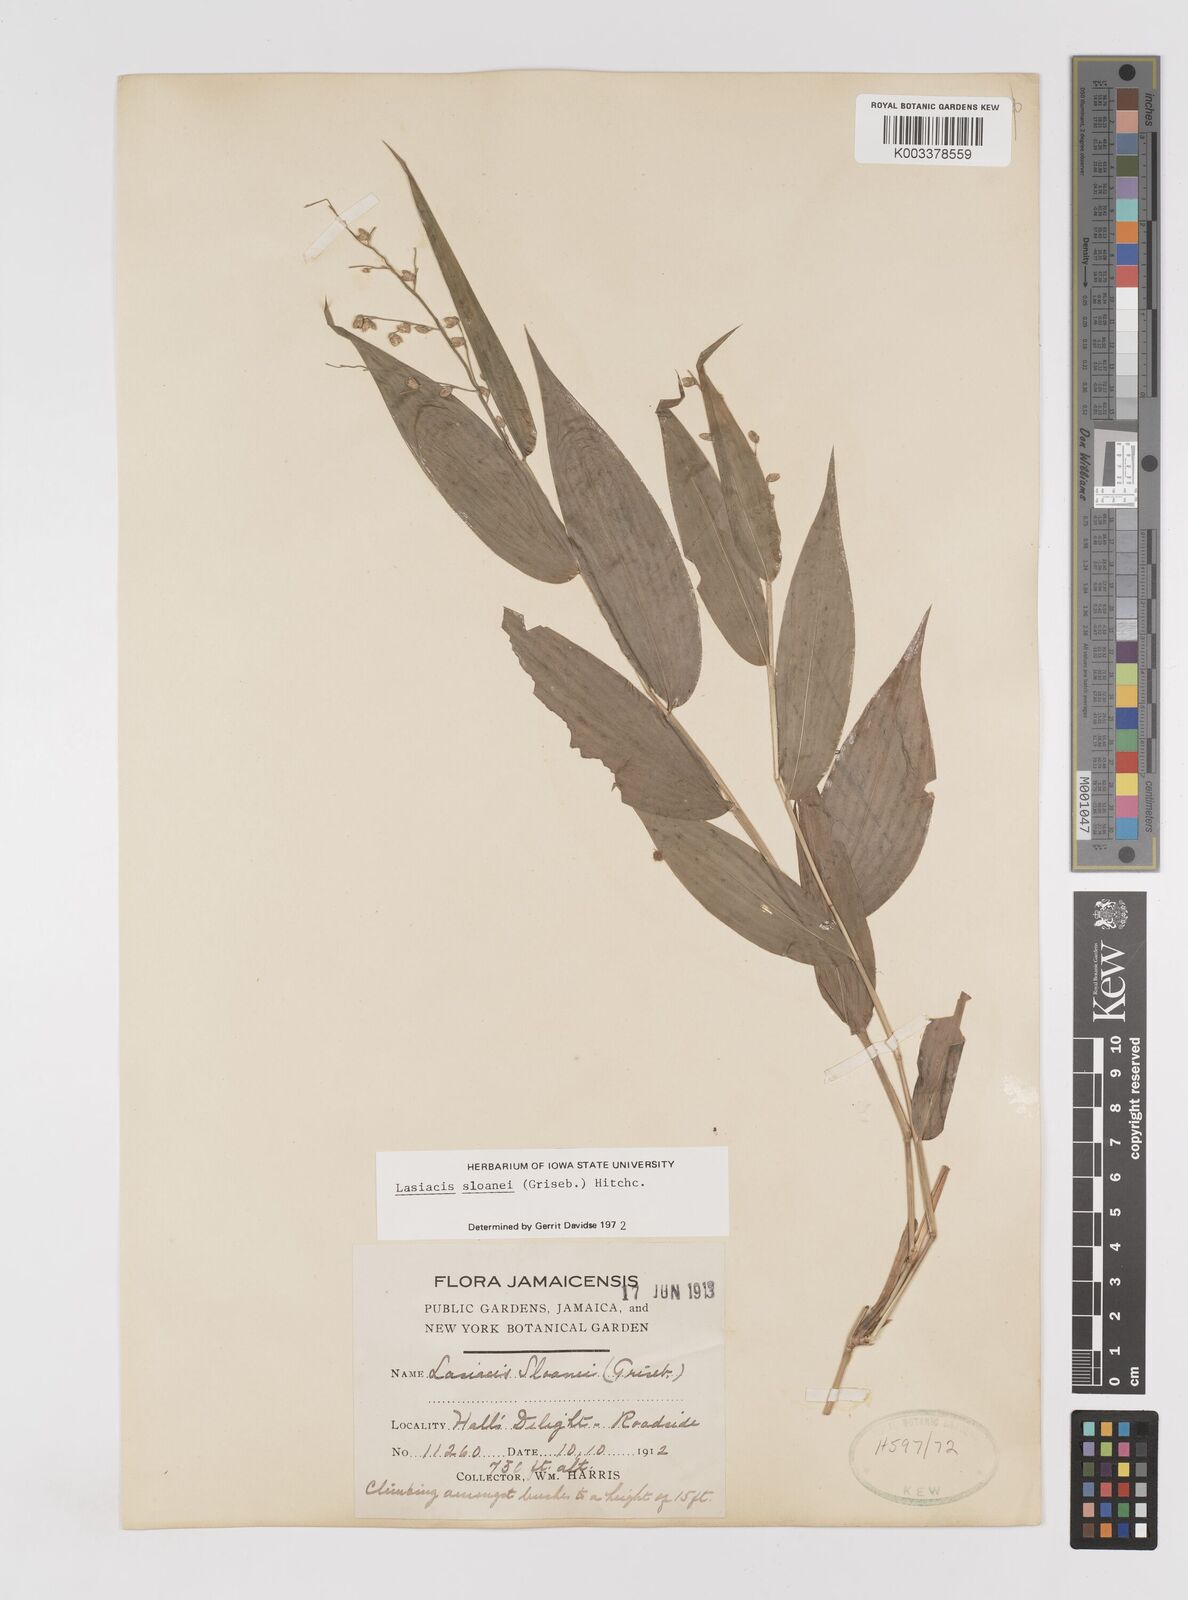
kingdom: Plantae
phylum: Tracheophyta
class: Liliopsida
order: Poales
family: Poaceae
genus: Lasiacis
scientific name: Lasiacis sloanei
